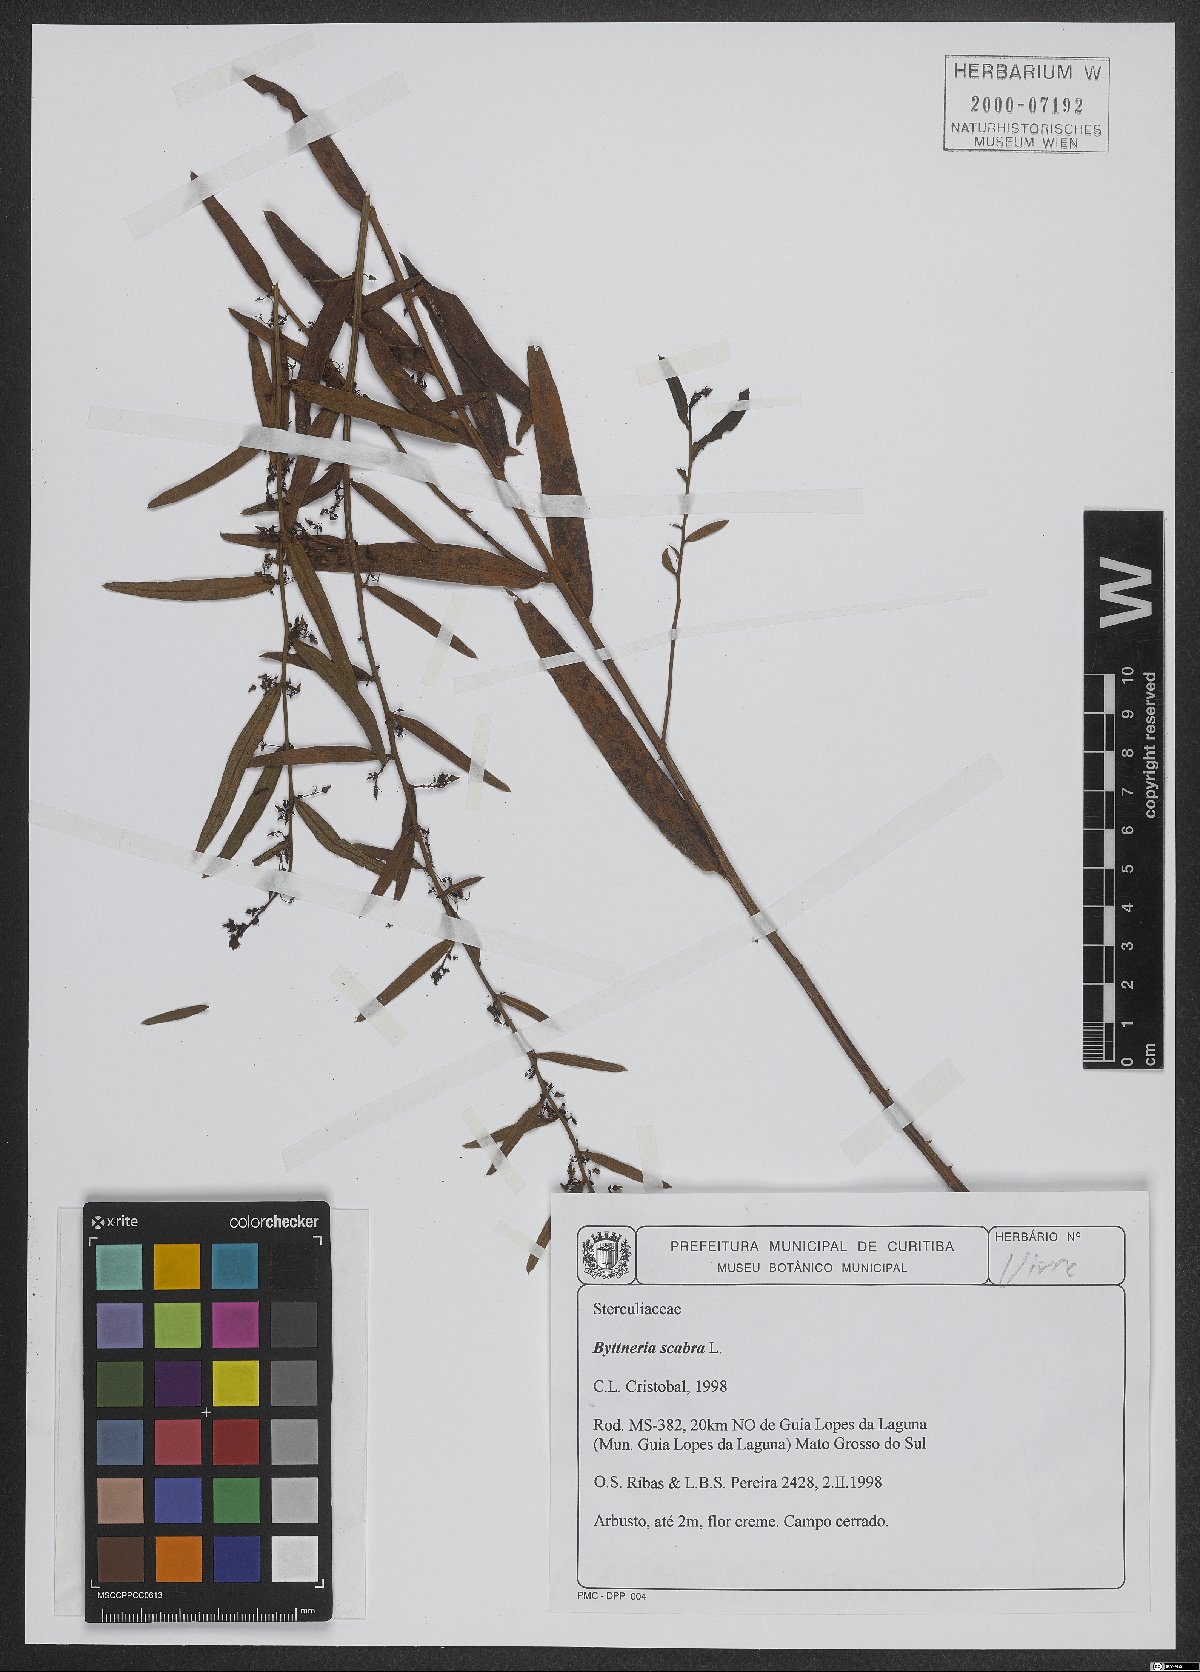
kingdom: Plantae
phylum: Tracheophyta
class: Magnoliopsida
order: Malvales
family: Malvaceae
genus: Byttneria
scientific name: Byttneria scabra
